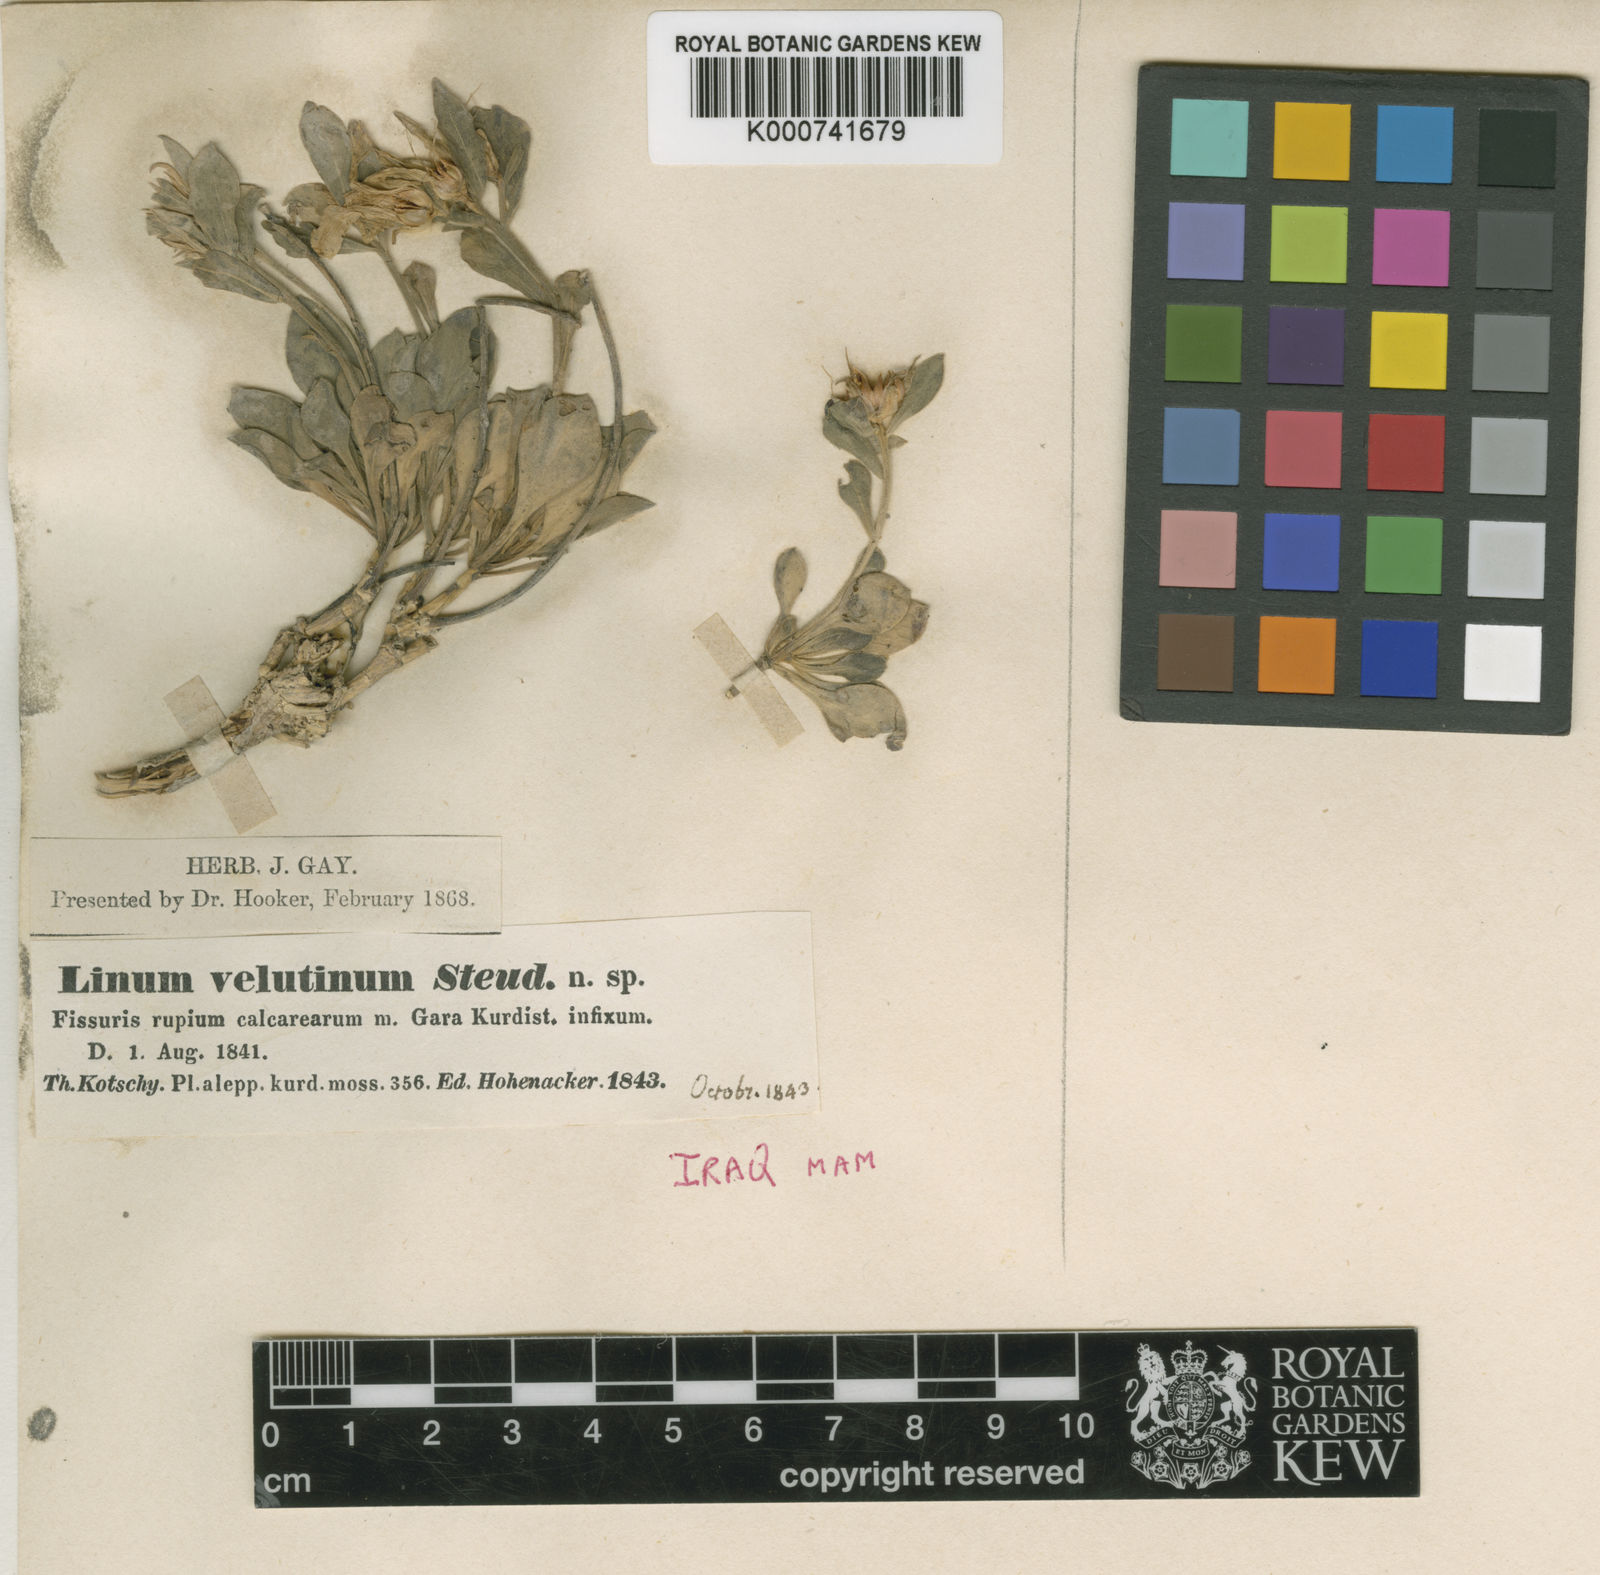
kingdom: Plantae
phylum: Tracheophyta
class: Magnoliopsida
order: Malpighiales
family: Linaceae
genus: Linum
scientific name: Linum velutinum
